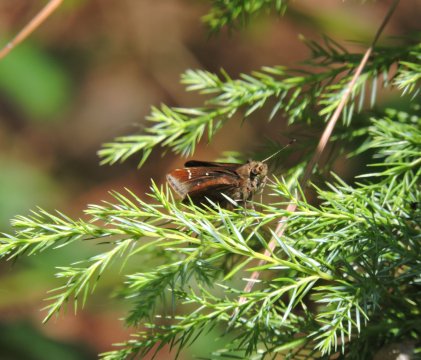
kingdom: Animalia
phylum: Arthropoda
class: Insecta
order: Lepidoptera
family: Hesperiidae
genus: Lerema
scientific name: Lerema accius
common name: Clouded Skipper
